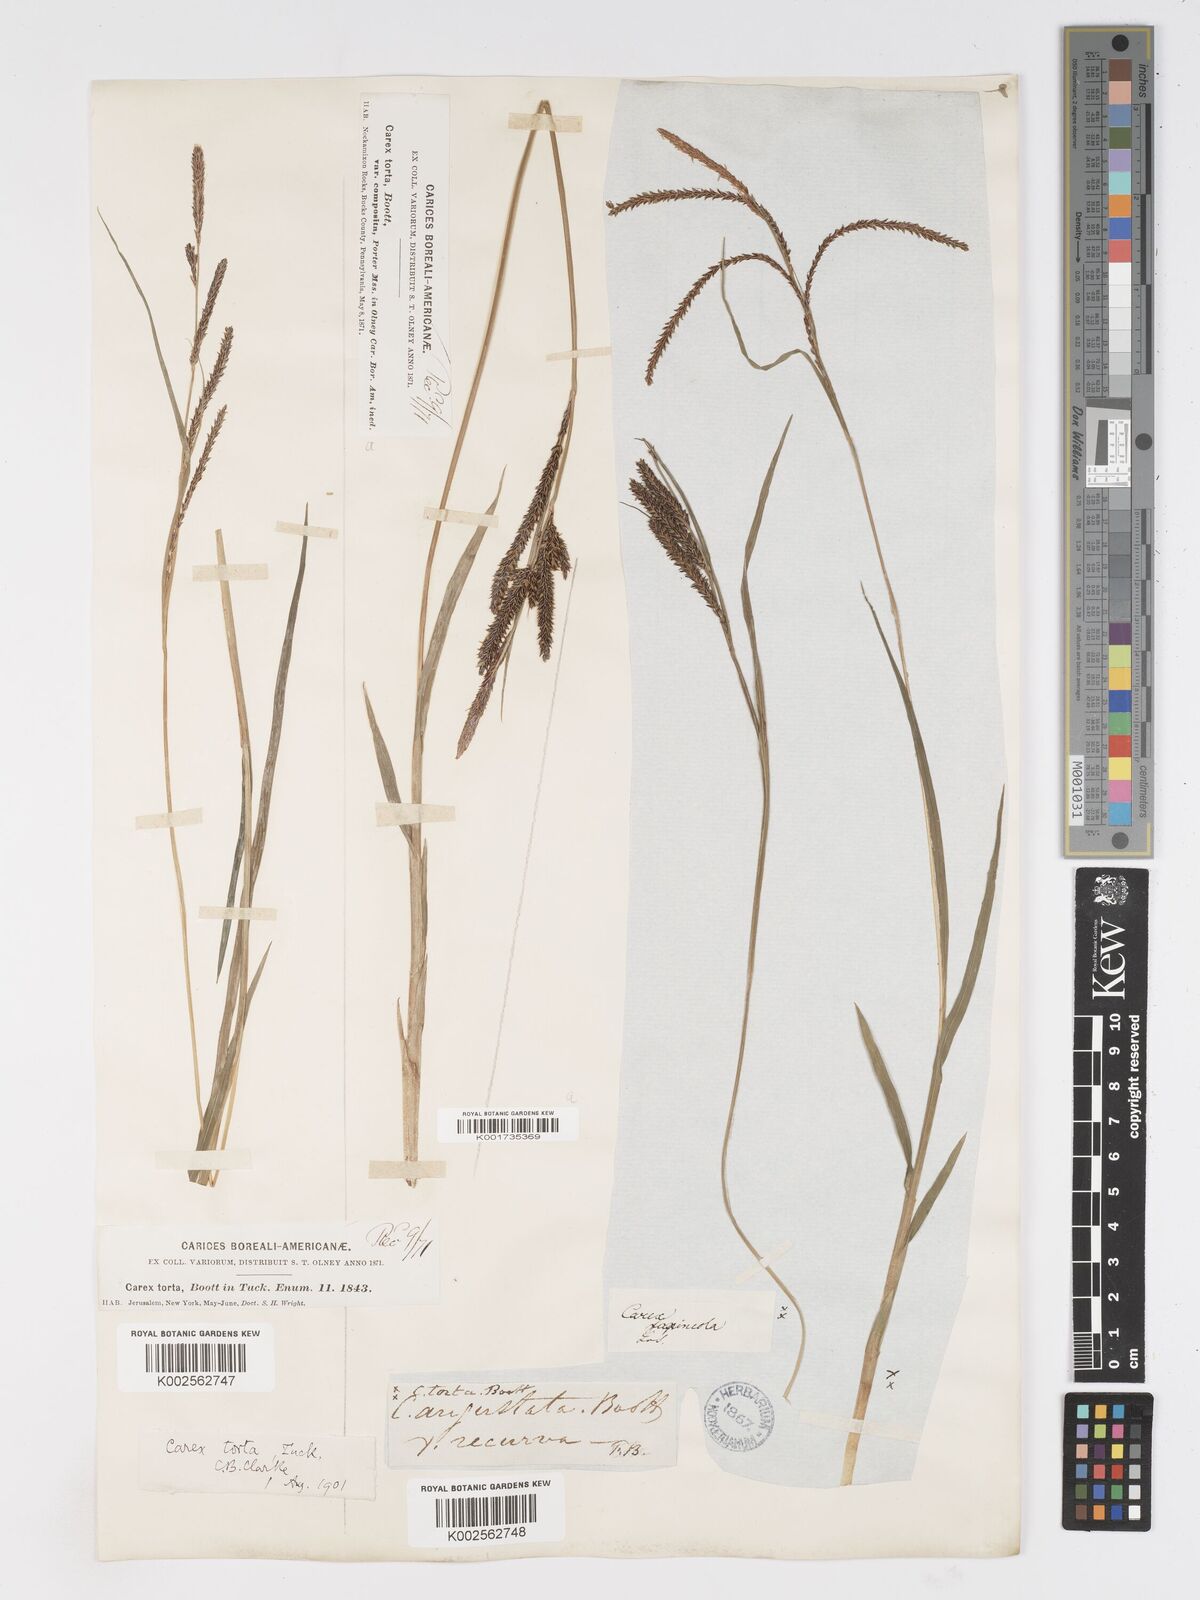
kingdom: Plantae
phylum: Tracheophyta
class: Liliopsida
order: Poales
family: Cyperaceae
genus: Carex
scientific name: Carex torta
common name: Twisted sedge
